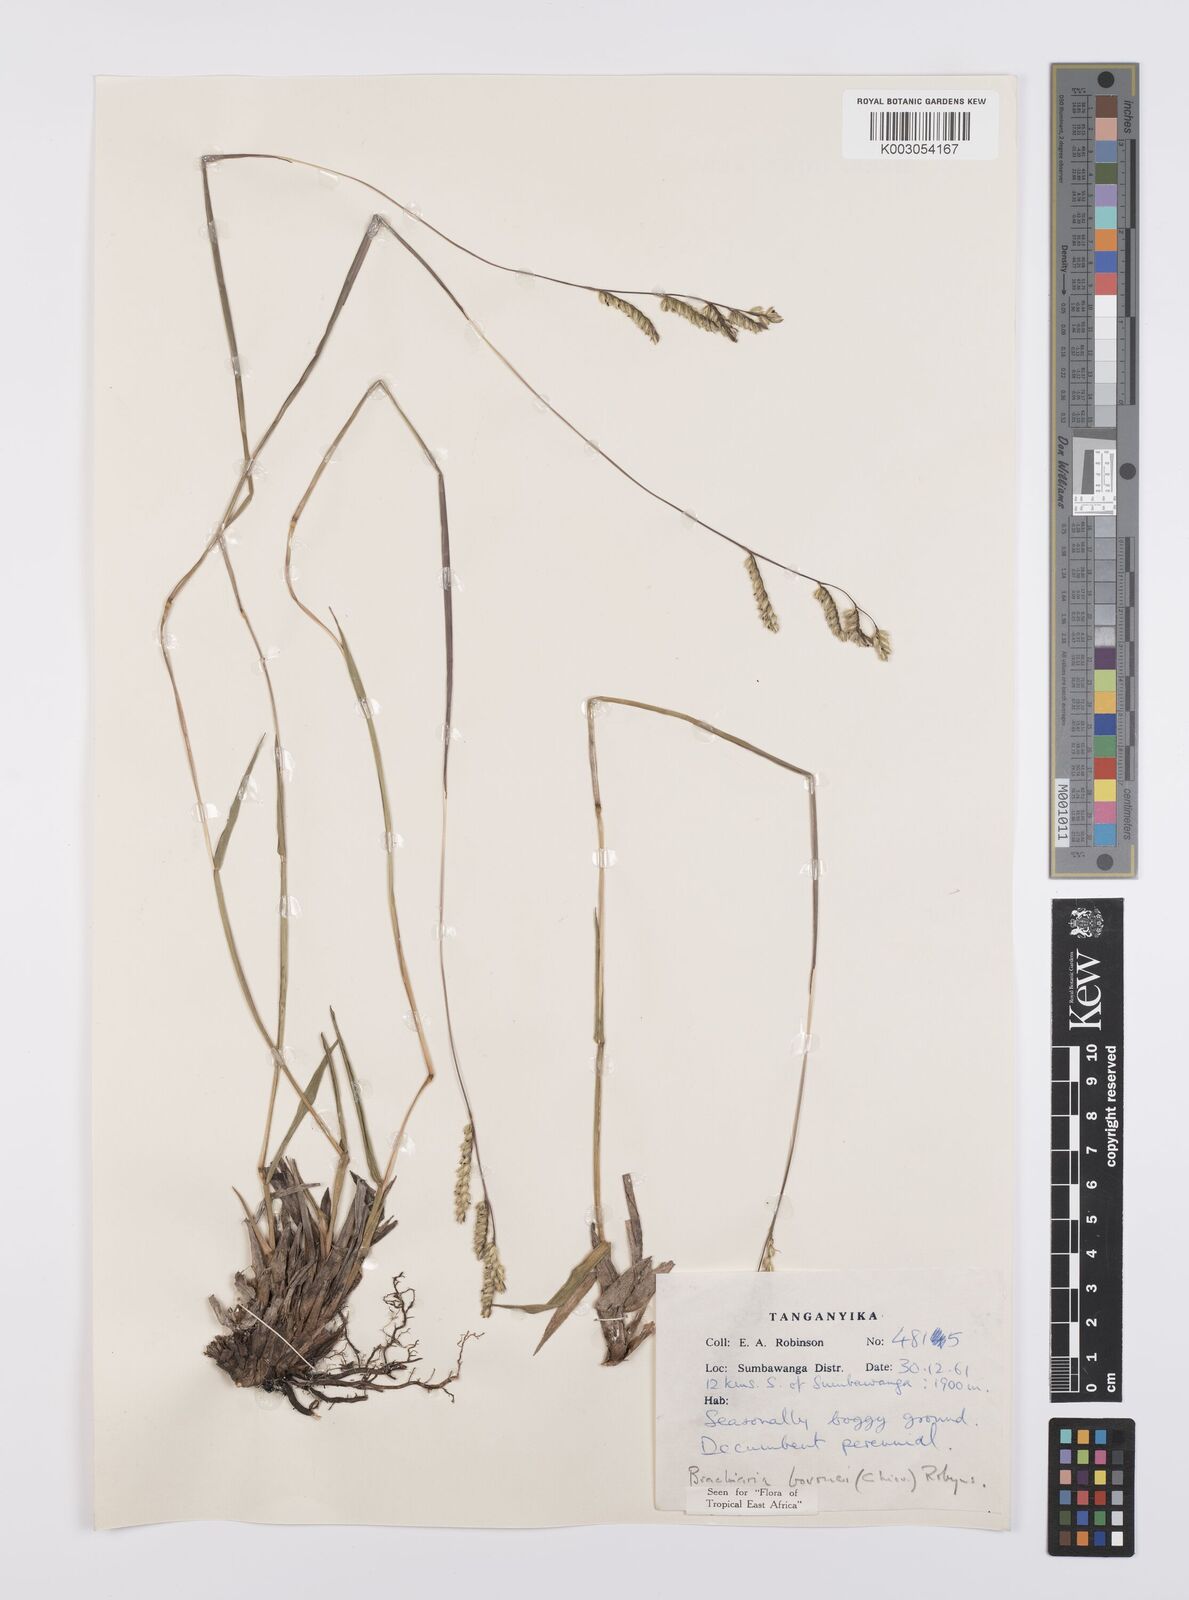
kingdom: Plantae
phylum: Tracheophyta
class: Liliopsida
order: Poales
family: Poaceae
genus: Urochloa
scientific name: Urochloa bovonei
